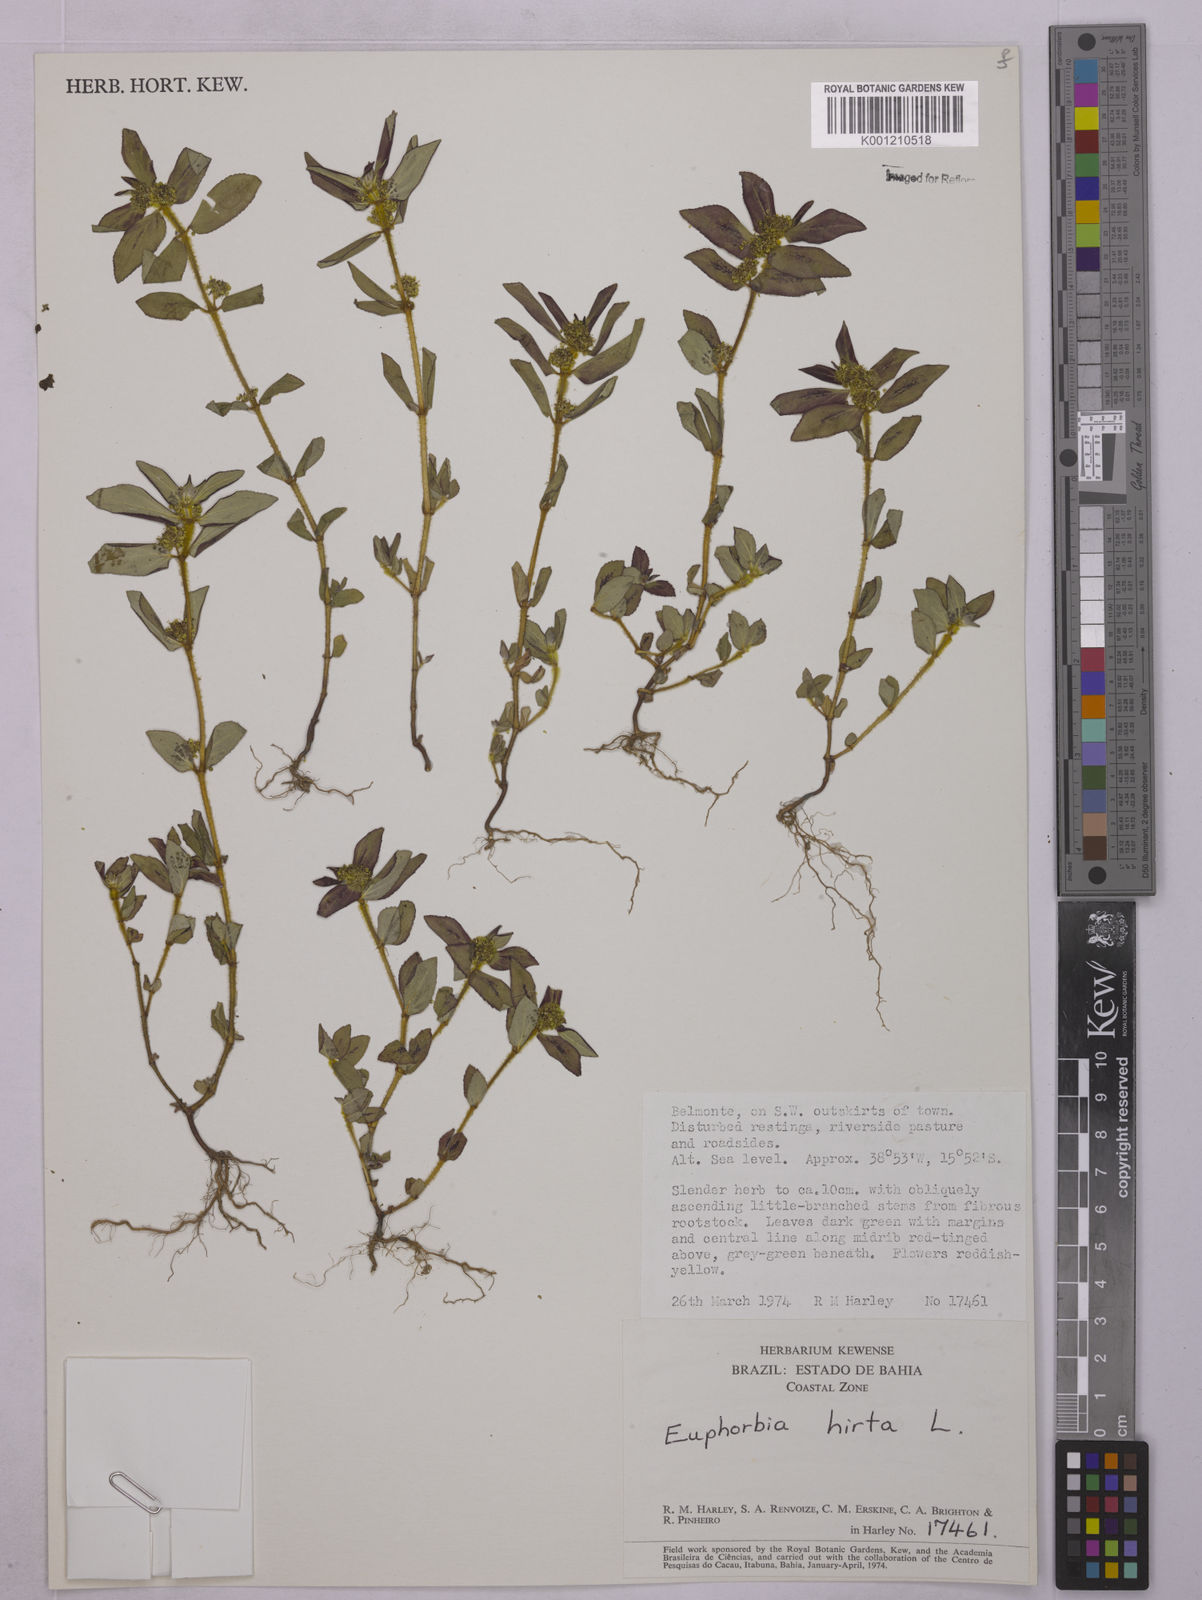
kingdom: Plantae
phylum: Tracheophyta
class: Magnoliopsida
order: Malpighiales
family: Euphorbiaceae
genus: Euphorbia
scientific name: Euphorbia hirta
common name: Pillpod sandmat
